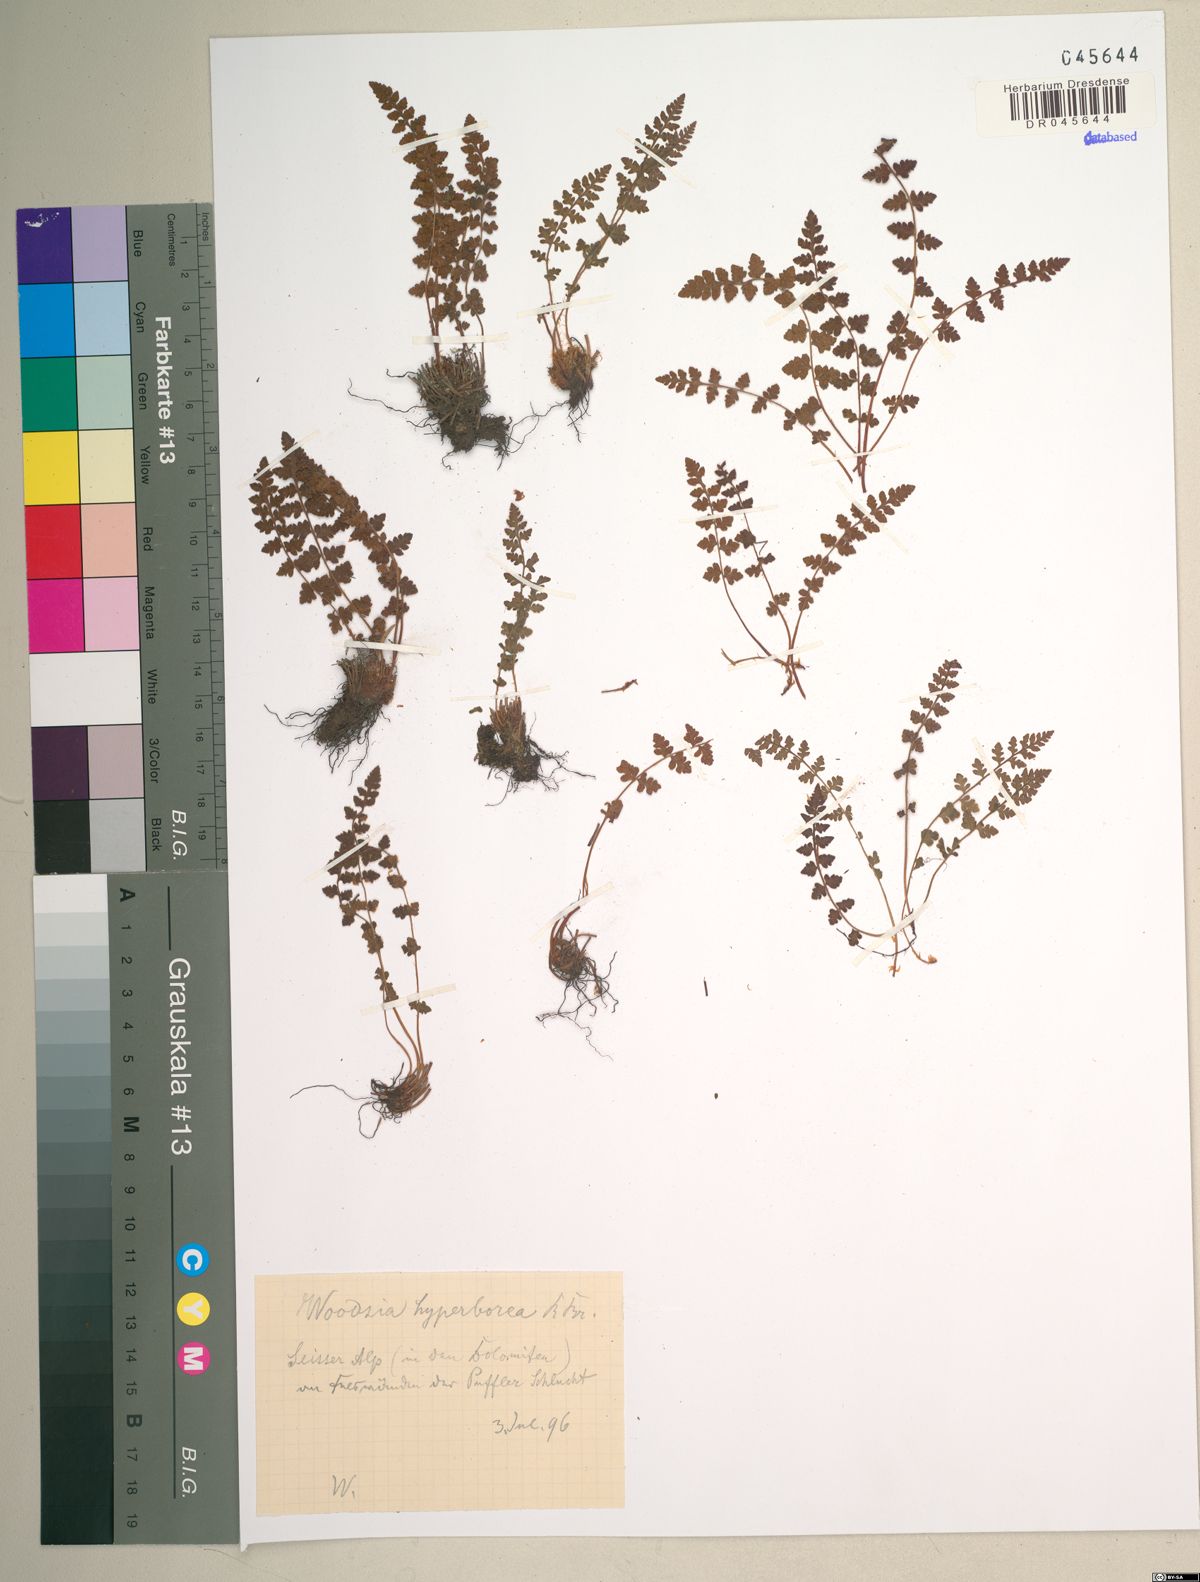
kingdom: Plantae
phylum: Tracheophyta
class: Polypodiopsida
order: Polypodiales
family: Woodsiaceae
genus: Woodsia
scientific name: Woodsia alpina
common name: Alpine woodsia
